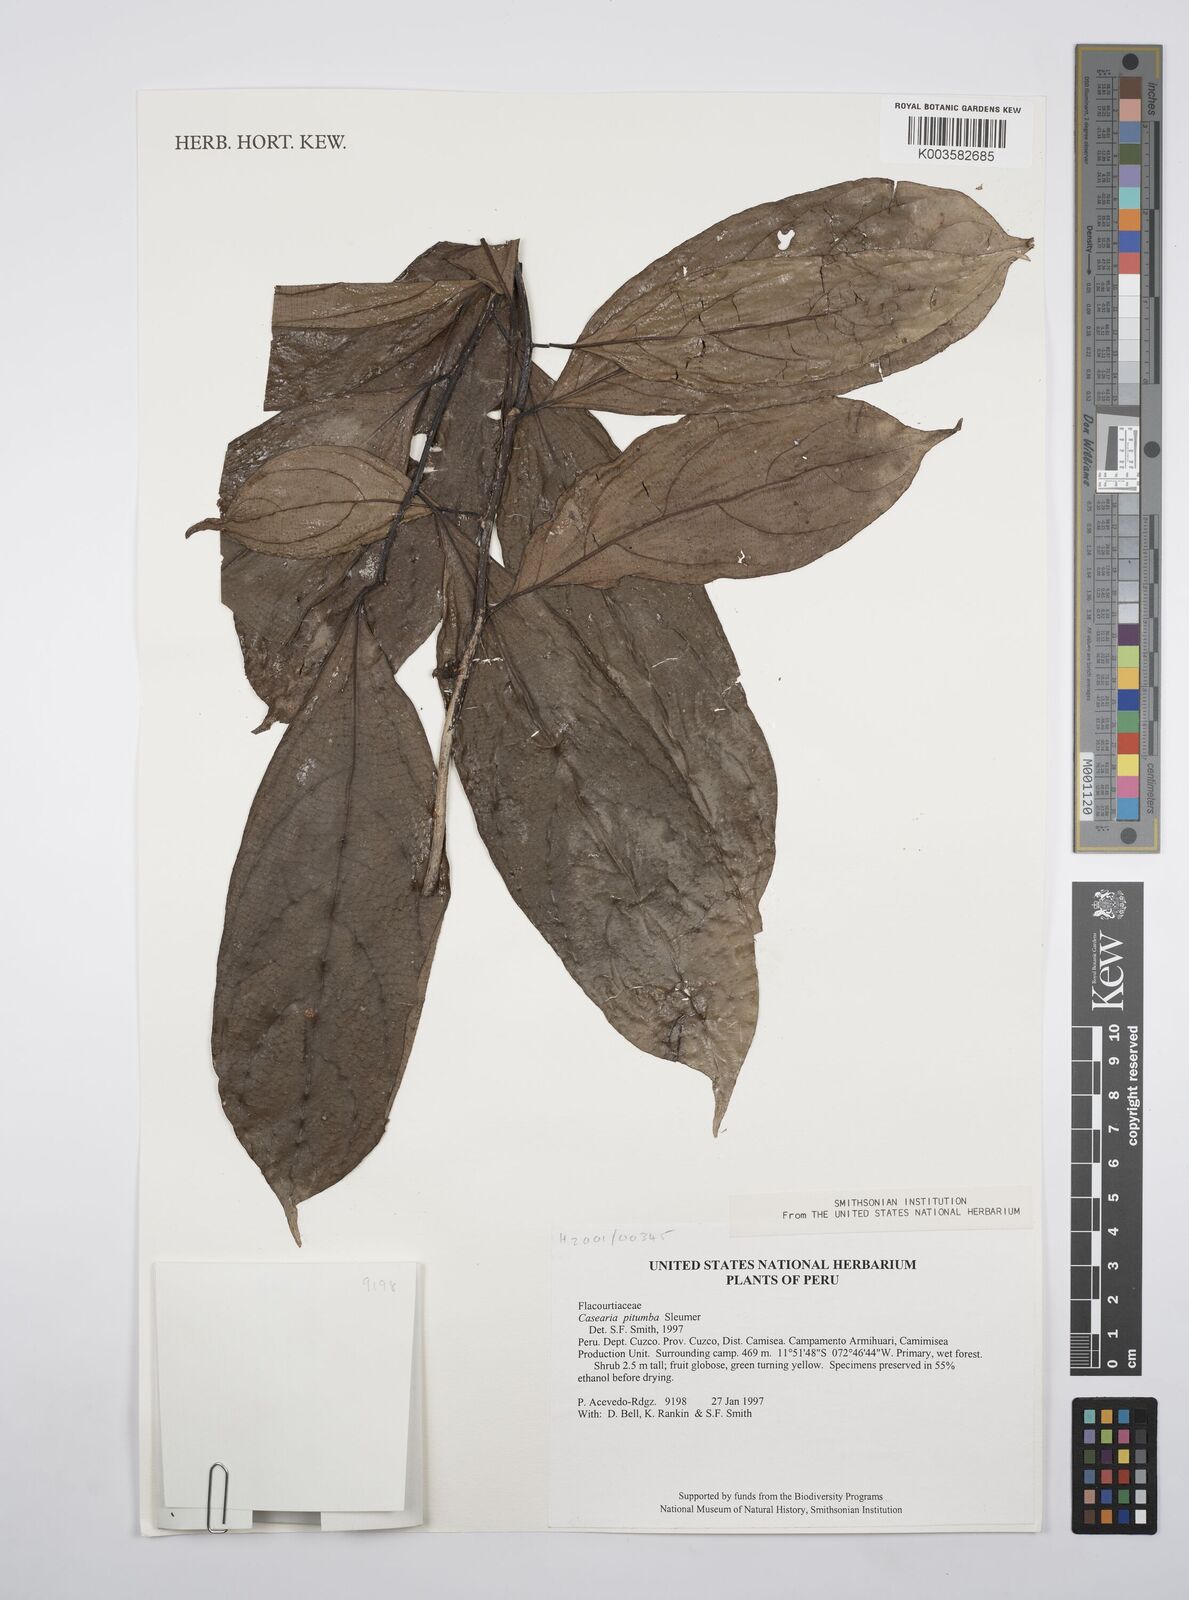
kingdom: Plantae
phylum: Tracheophyta
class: Magnoliopsida
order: Malpighiales
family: Salicaceae
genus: Casearia
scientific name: Casearia pitumba
